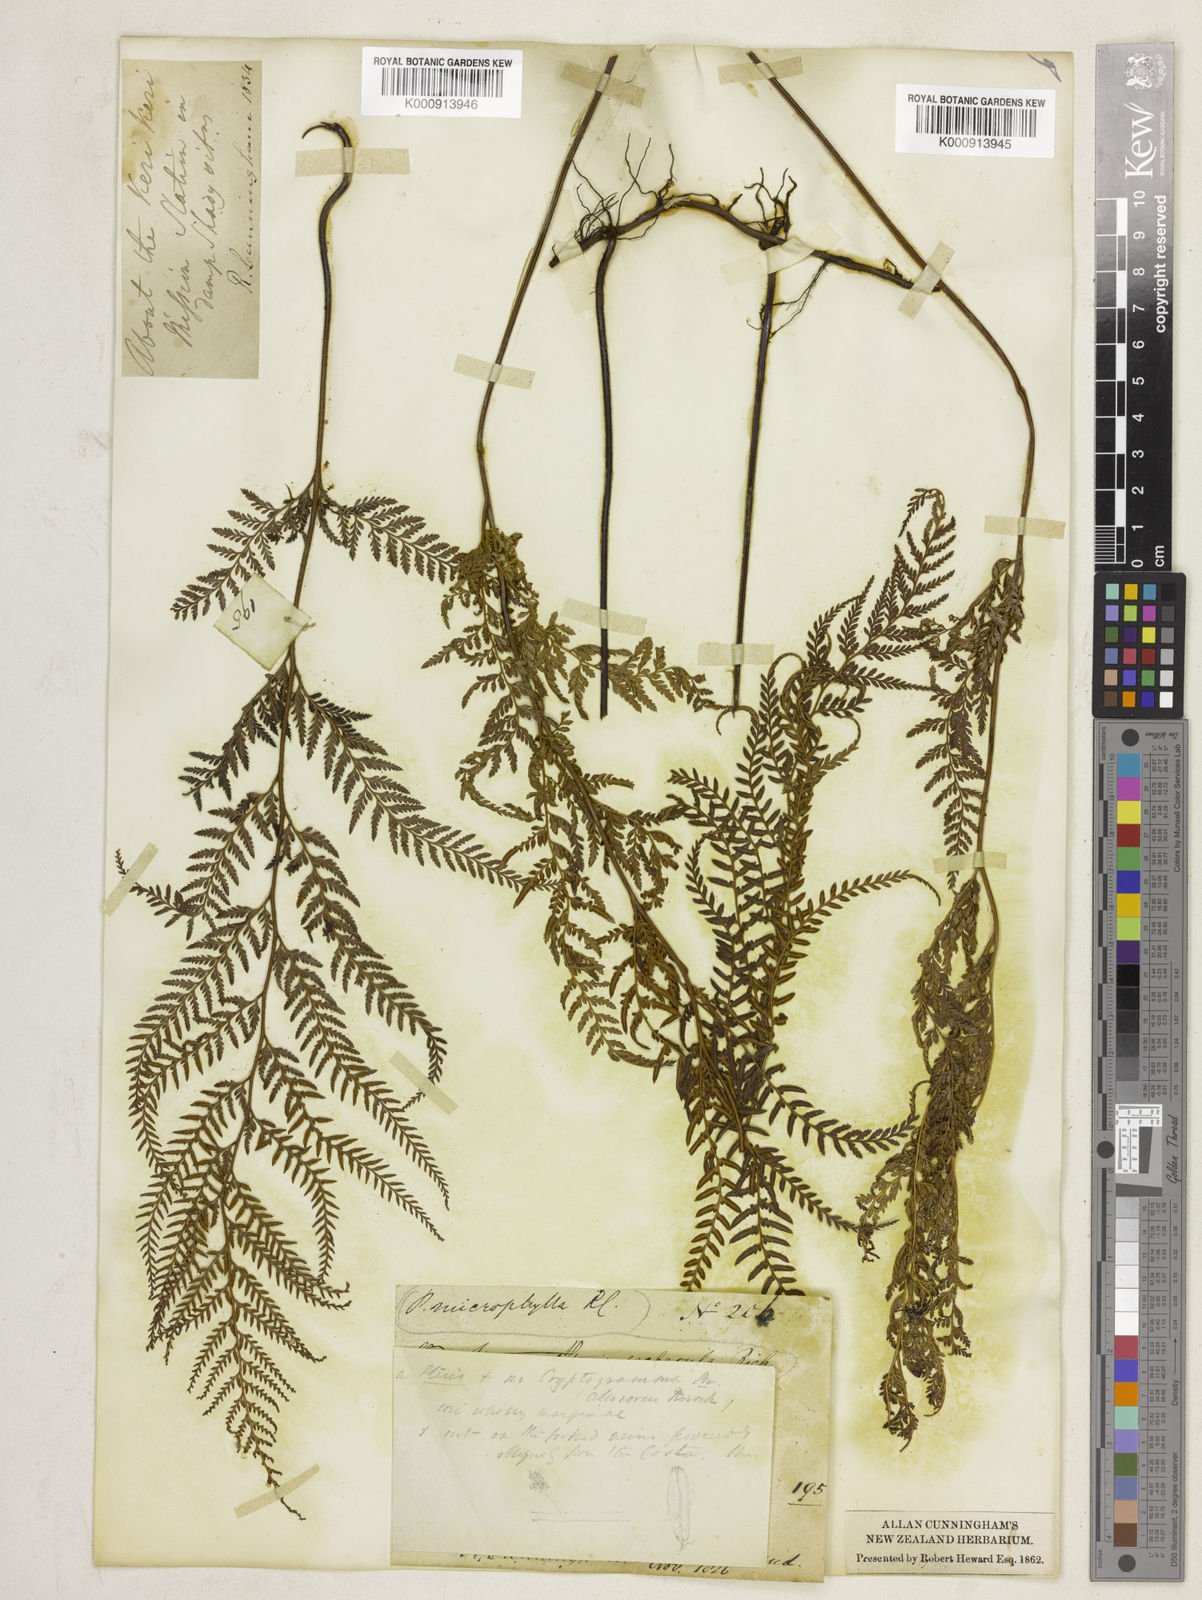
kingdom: Plantae
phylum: Tracheophyta
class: Polypodiopsida
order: Polypodiales
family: Dennstaedtiaceae
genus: Paesia
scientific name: Paesia scaberula
